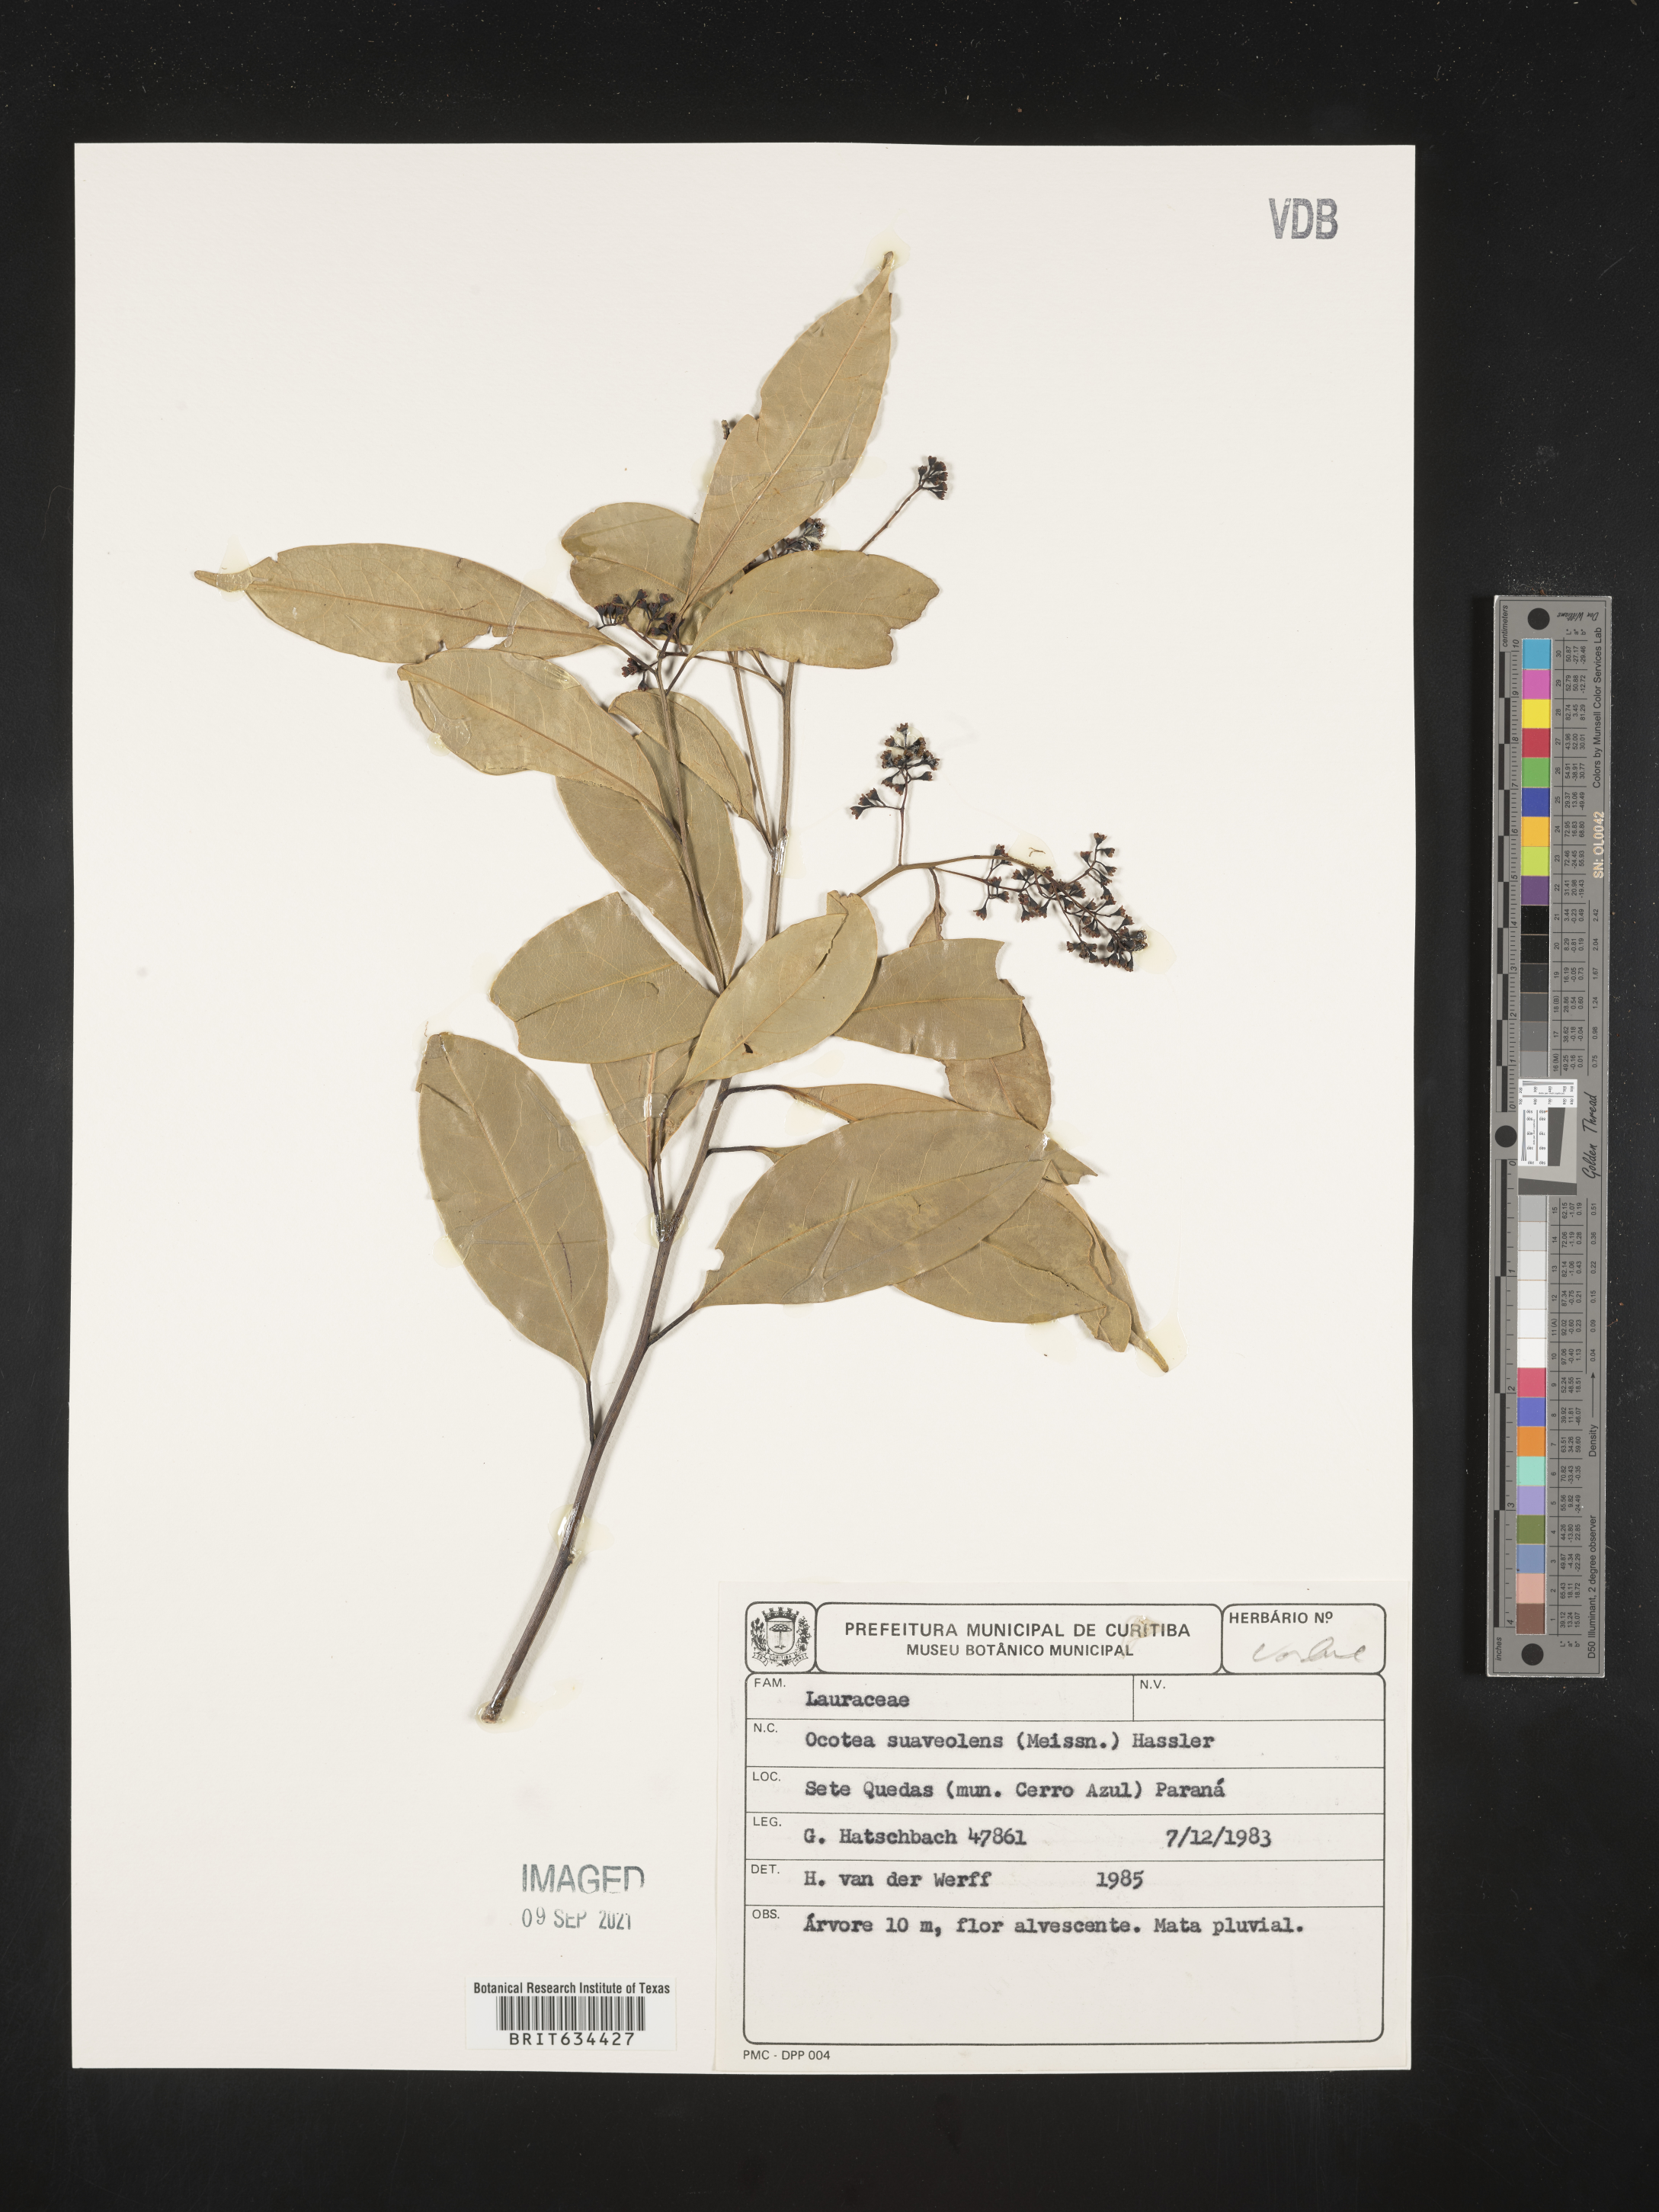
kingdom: Plantae
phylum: Tracheophyta
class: Magnoliopsida
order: Laurales
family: Lauraceae
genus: Ocotea
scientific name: Ocotea
